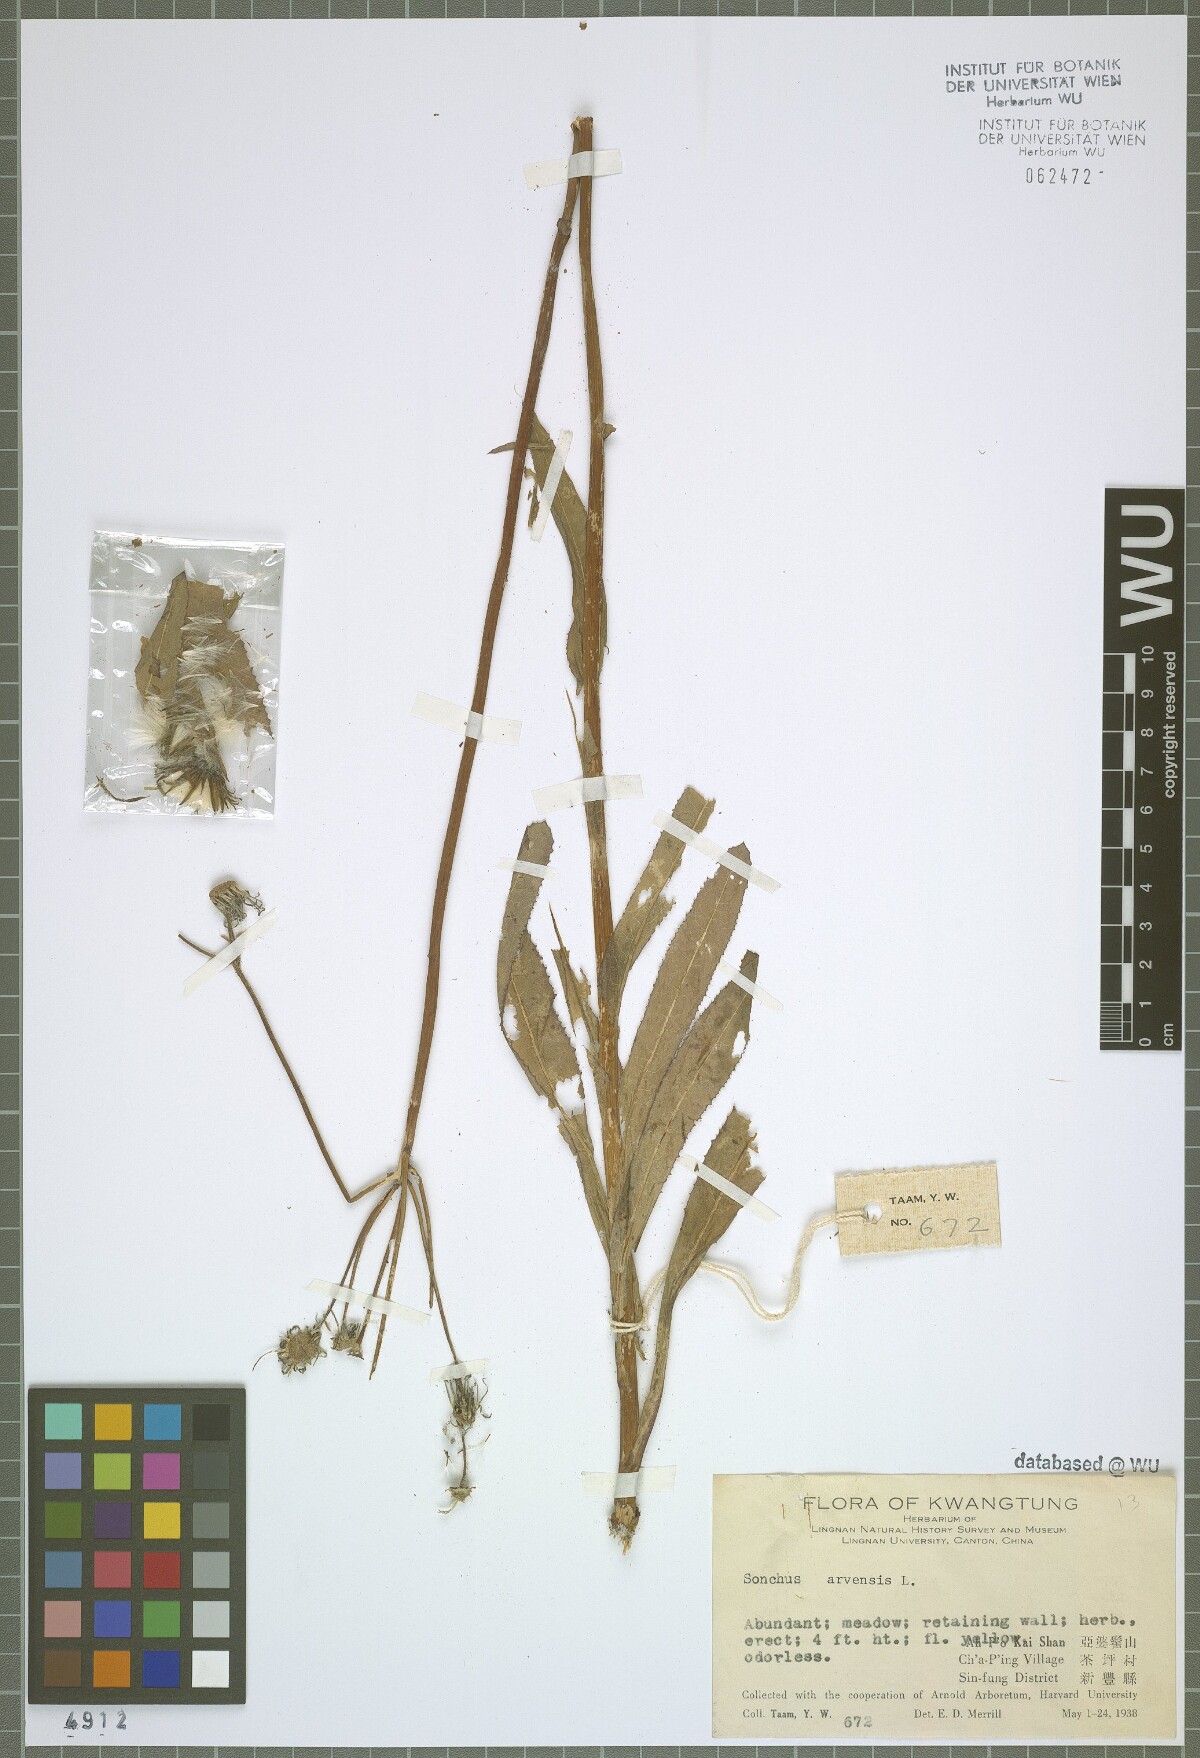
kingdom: Plantae
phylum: Tracheophyta
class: Magnoliopsida
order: Asterales
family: Asteraceae
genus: Sonchus
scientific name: Sonchus arvensis
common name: Perennial sow-thistle
